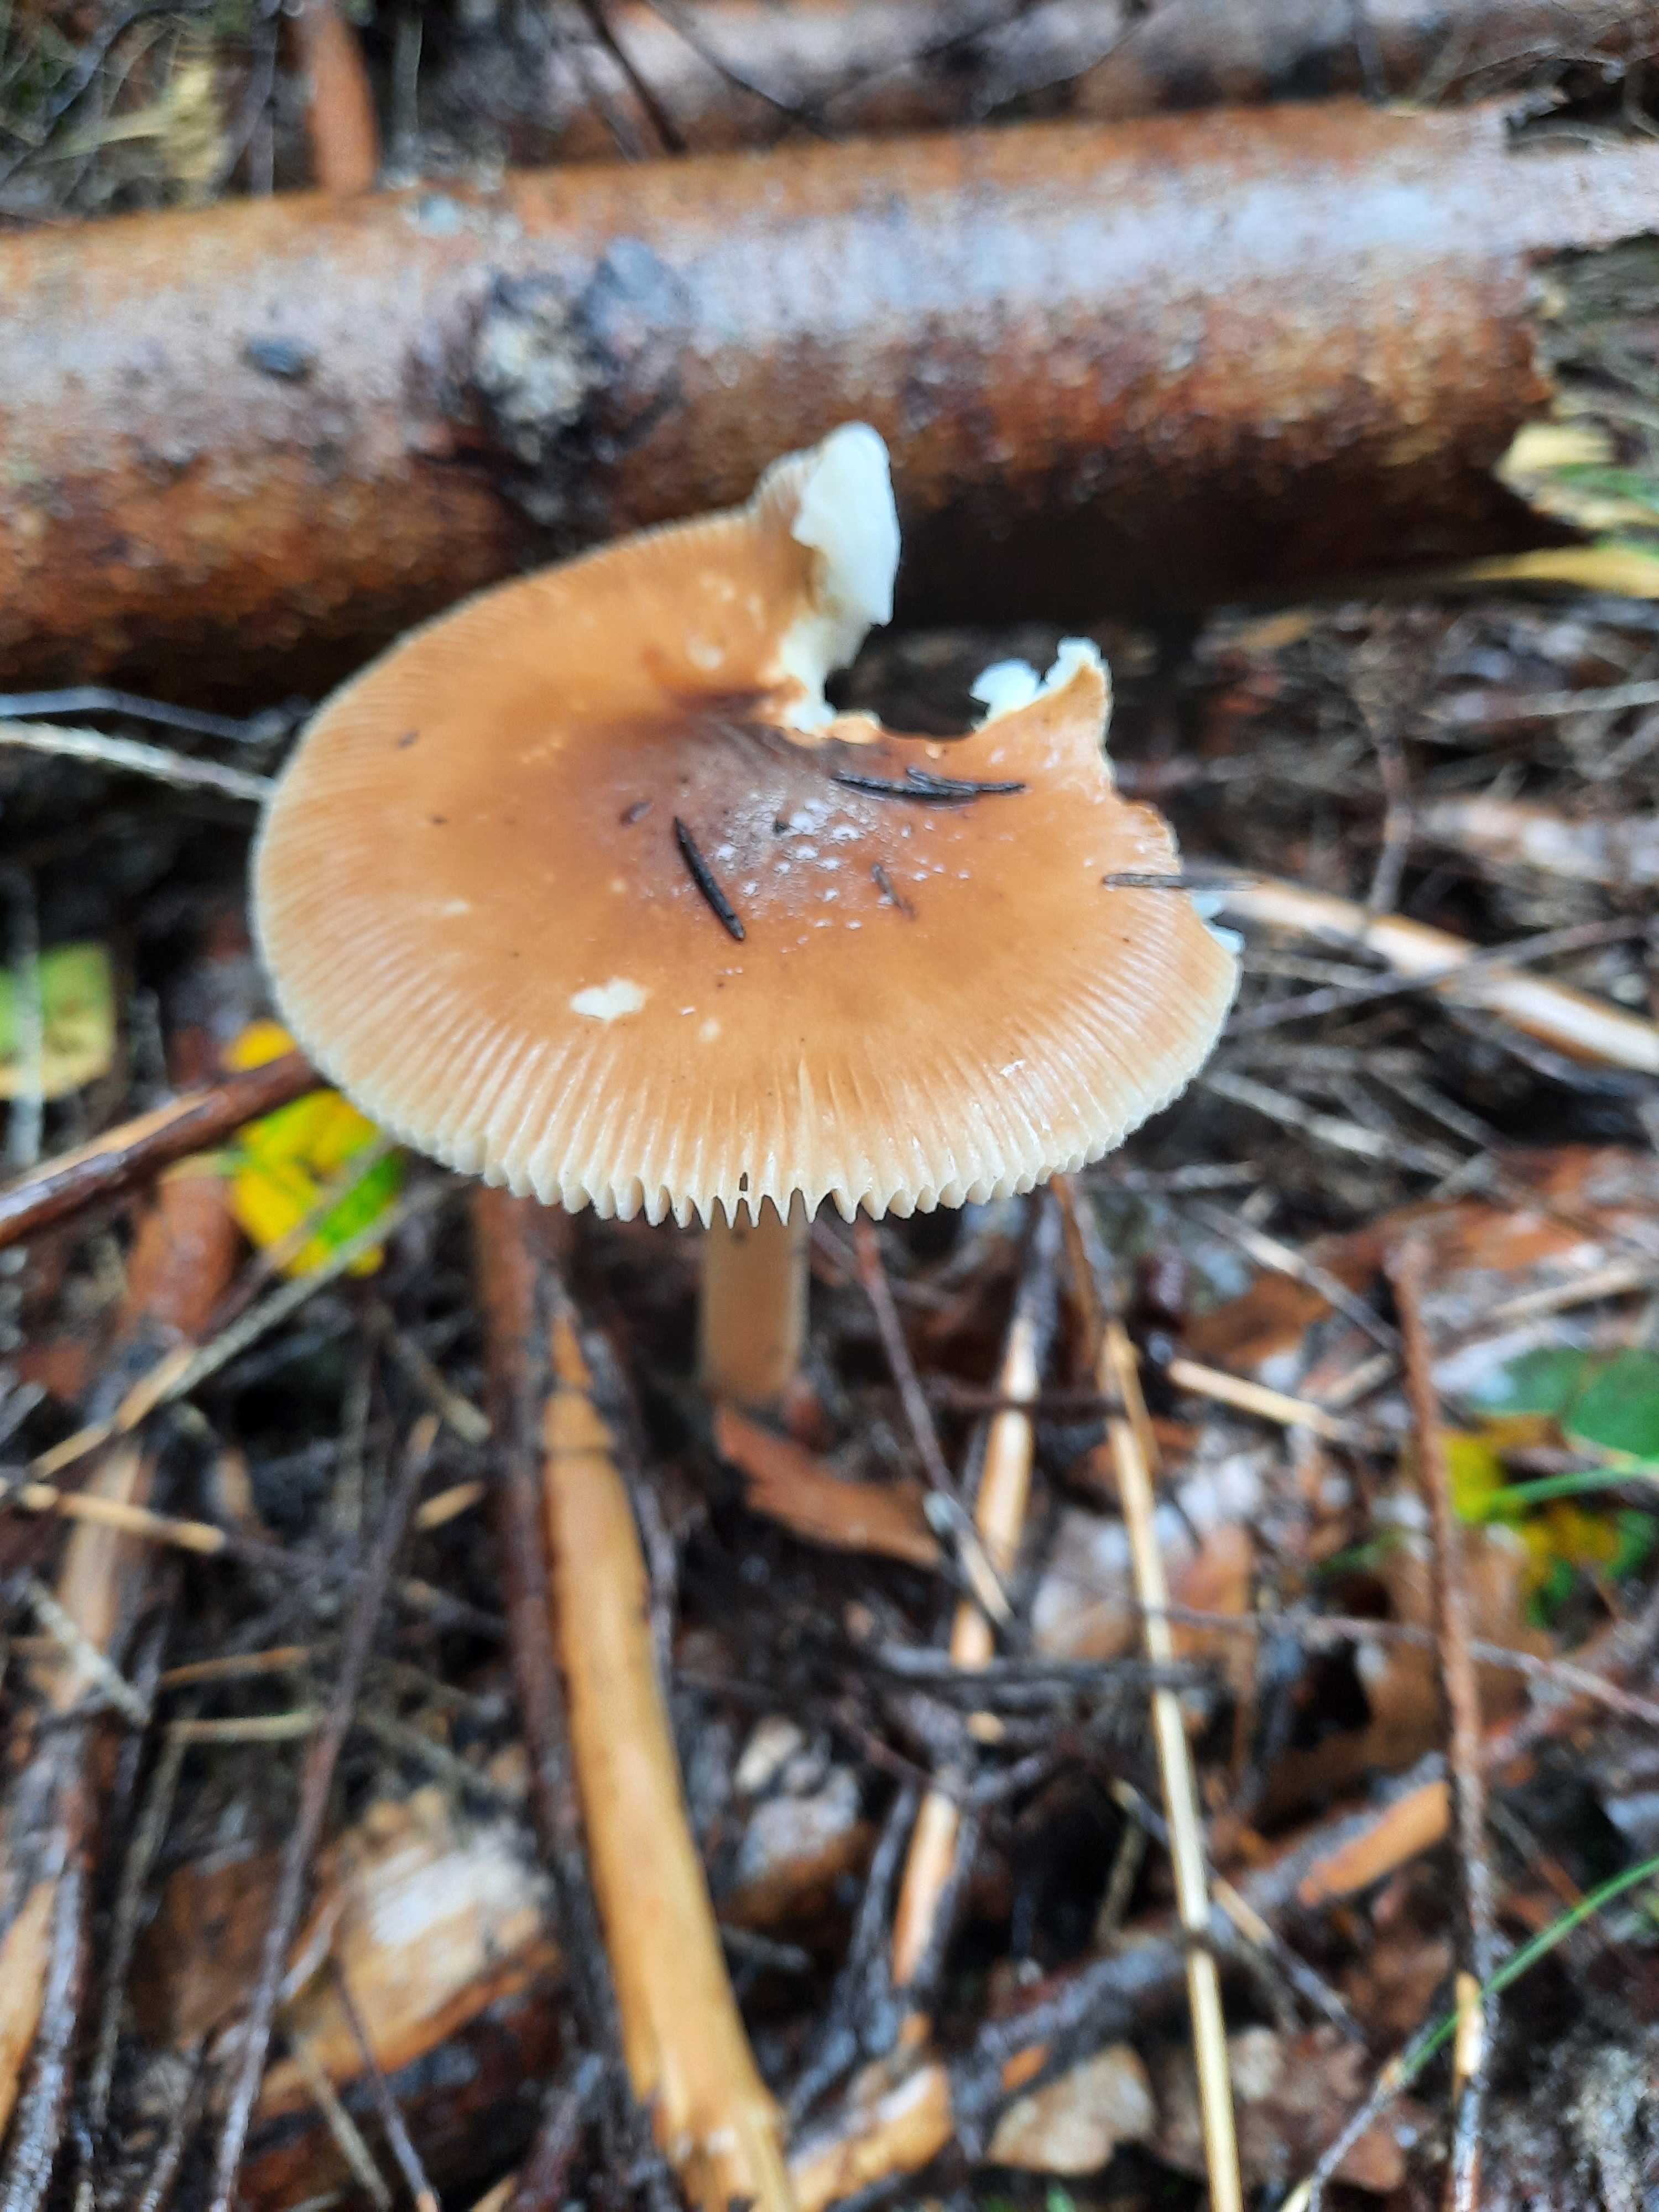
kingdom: Fungi
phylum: Basidiomycota
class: Agaricomycetes
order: Agaricales
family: Amanitaceae
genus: Amanita
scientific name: Amanita fulva
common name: brun kam-fluesvamp
